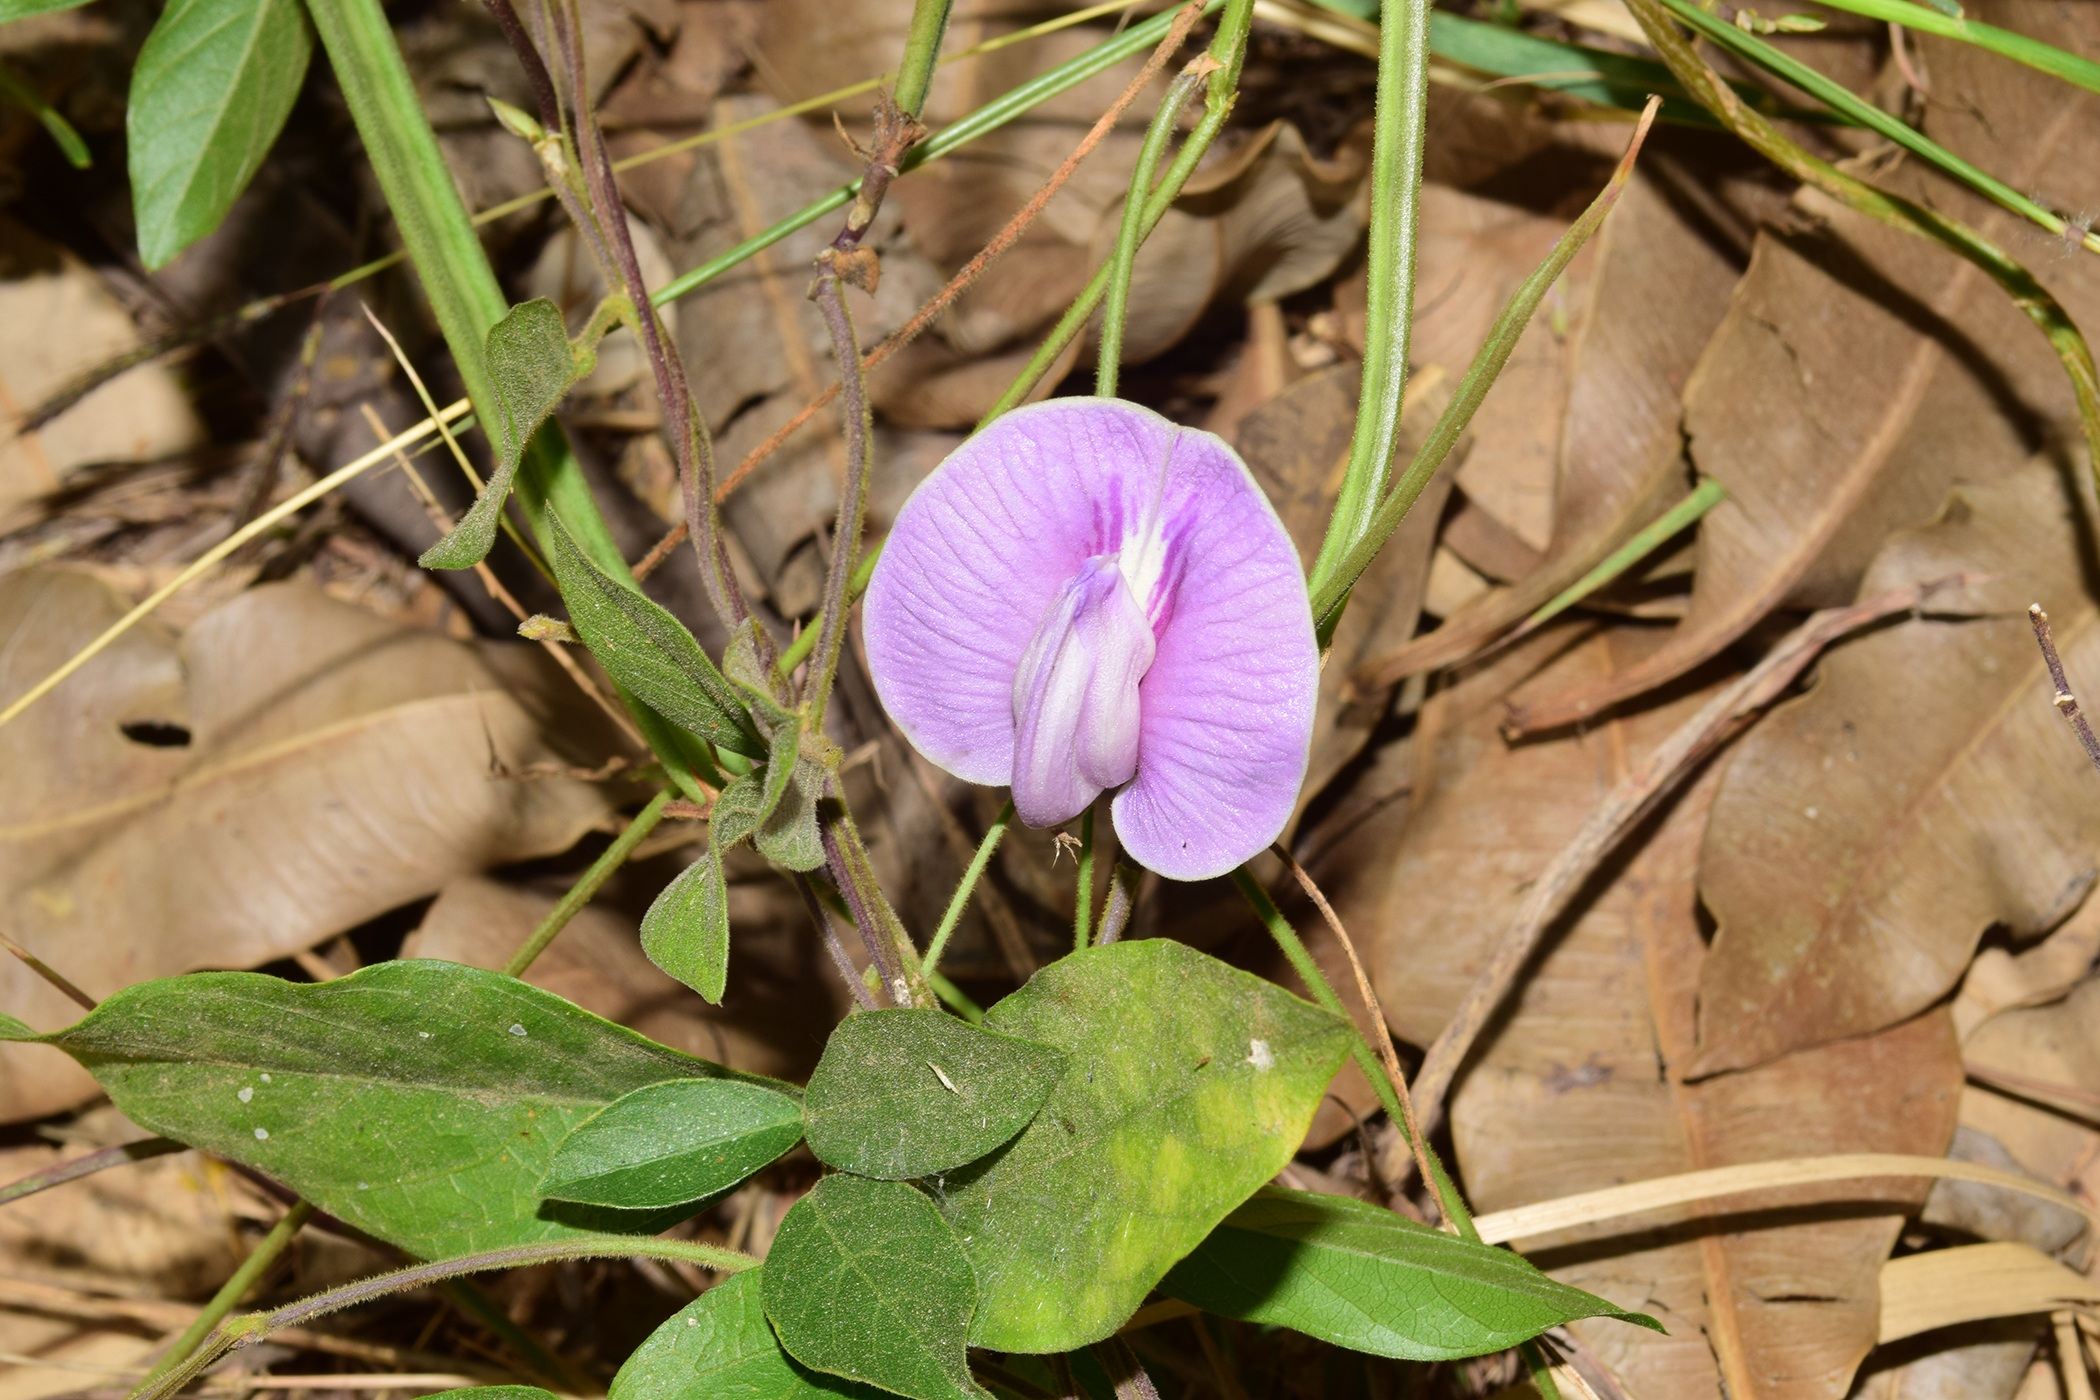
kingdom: Plantae
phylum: Tracheophyta
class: Magnoliopsida
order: Fabales
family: Fabaceae
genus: Centrosema
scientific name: Centrosema pubescens
